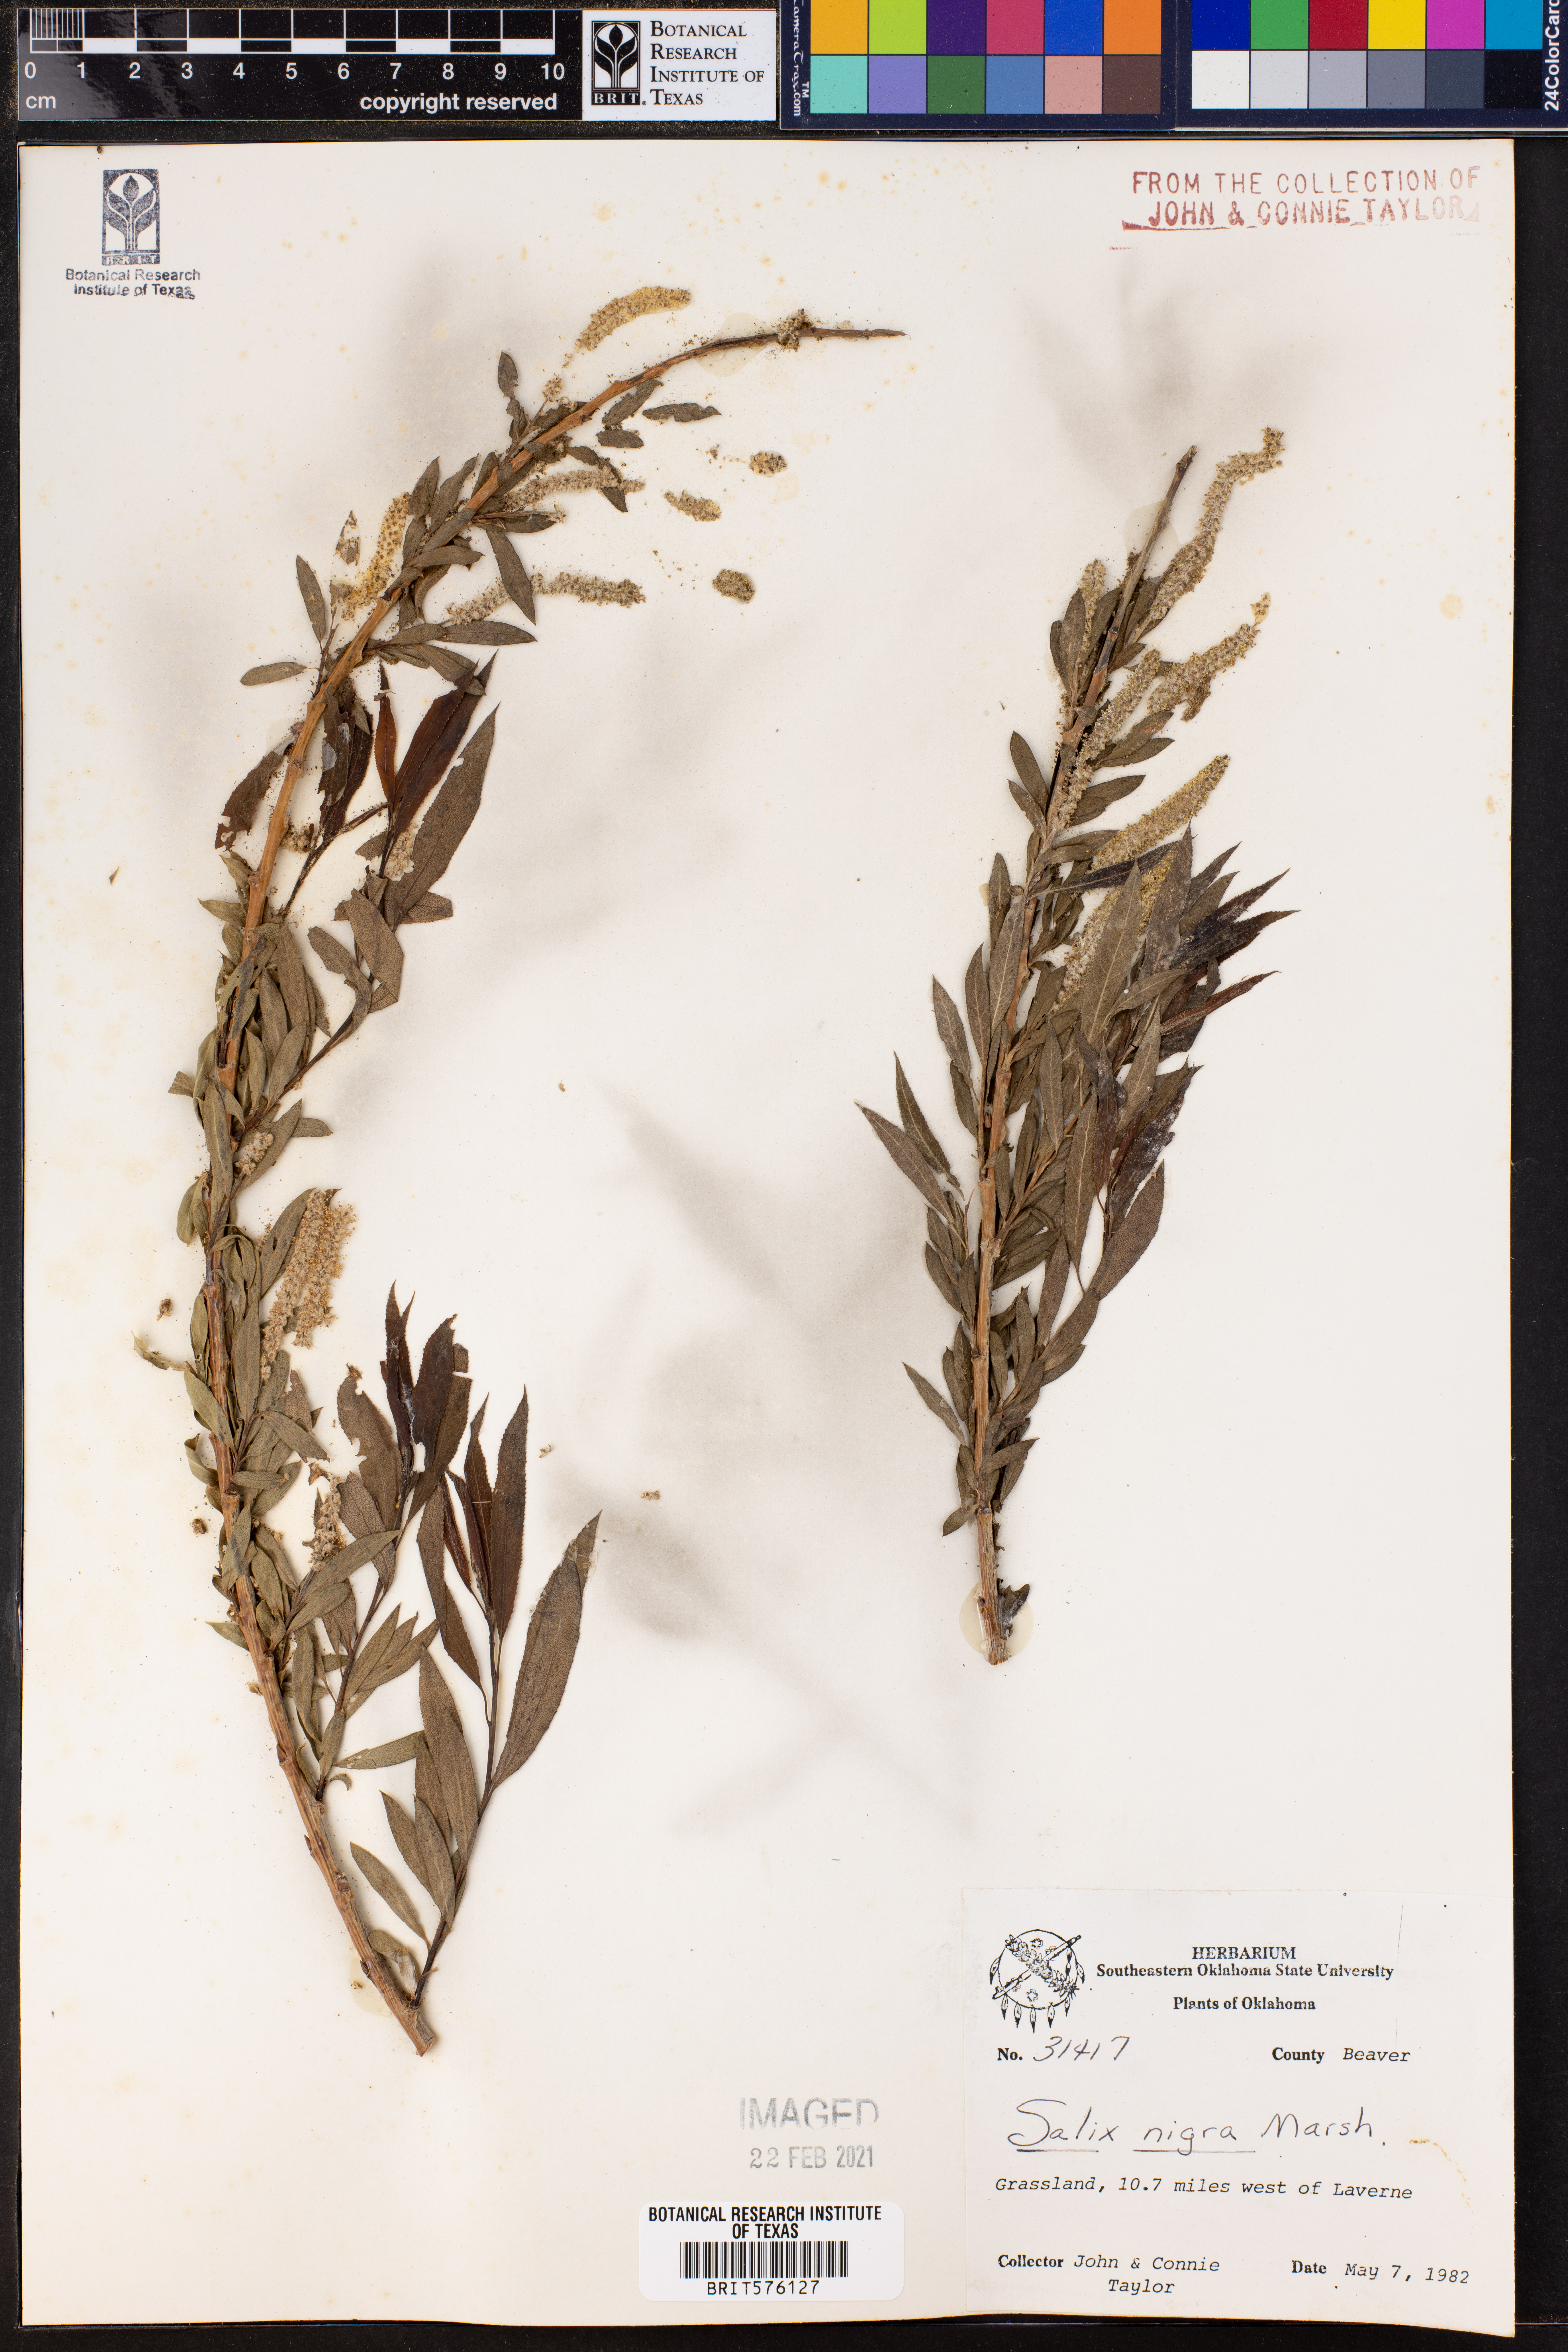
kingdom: Plantae
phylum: Tracheophyta
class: Magnoliopsida
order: Malpighiales
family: Salicaceae
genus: Salix
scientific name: Salix nigra
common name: Black willow
